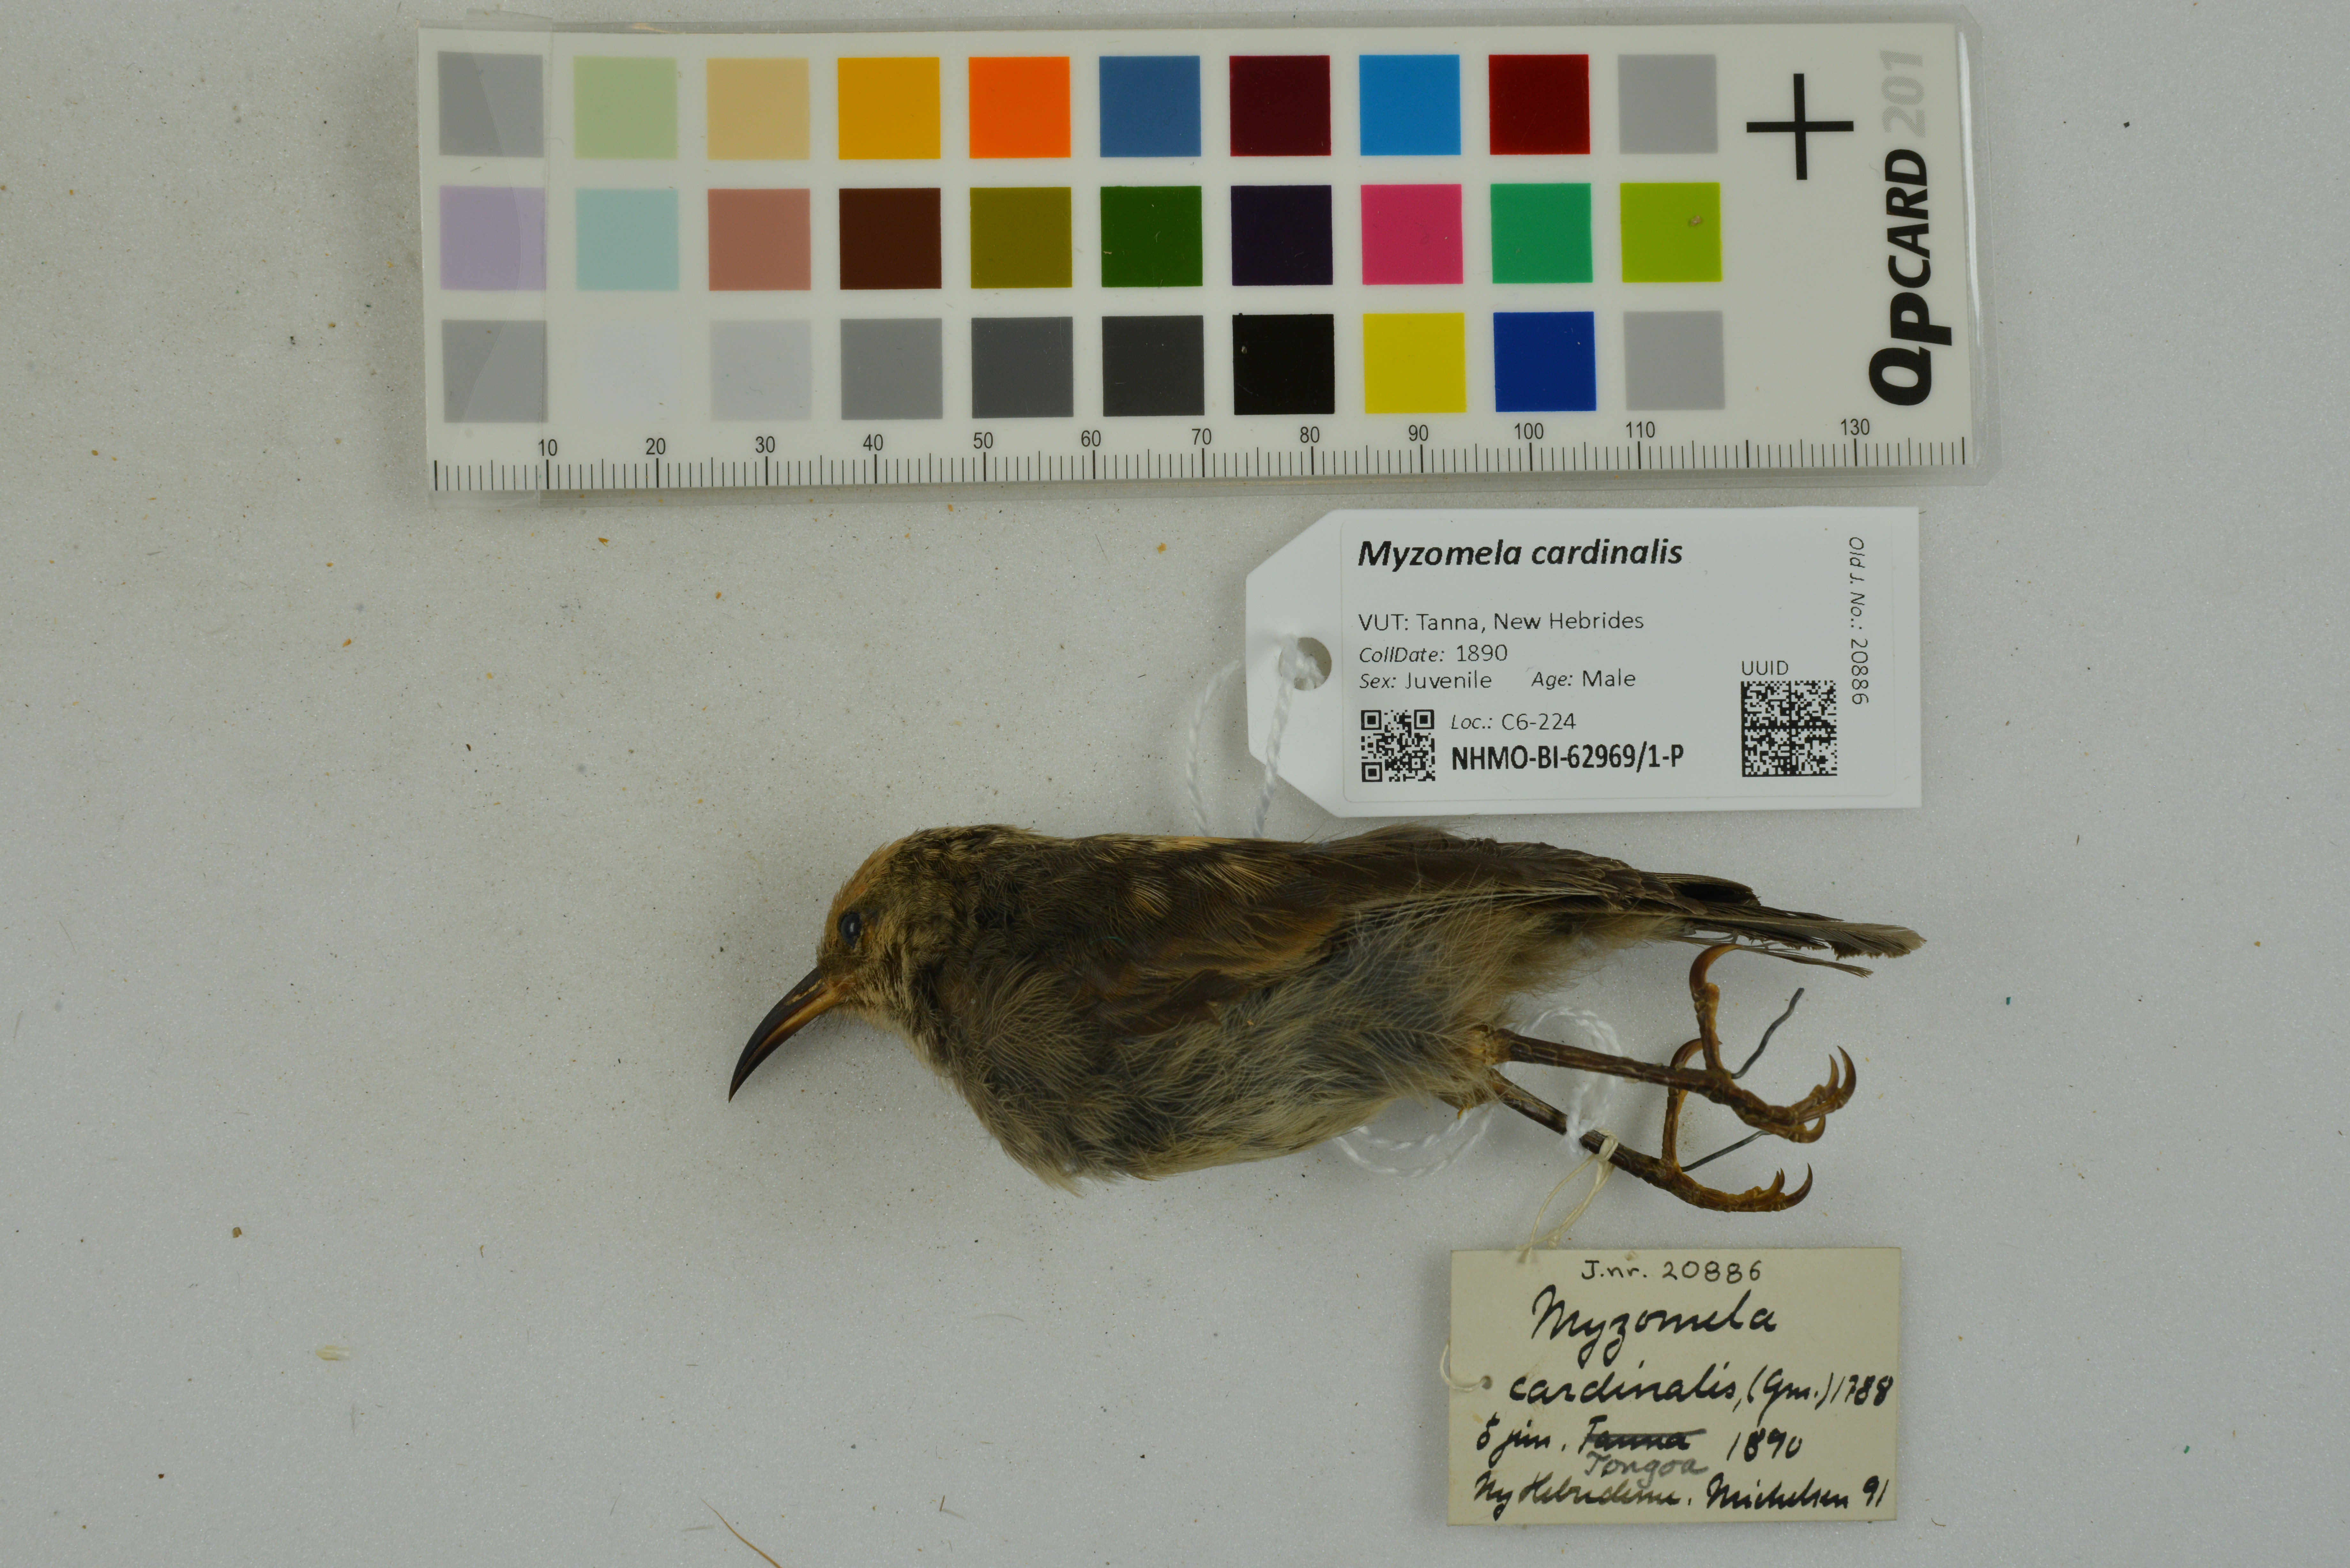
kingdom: Animalia
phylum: Chordata
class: Aves
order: Passeriformes
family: Meliphagidae
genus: Myzomela
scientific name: Myzomela cardinalis
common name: Cardinal myzomela
